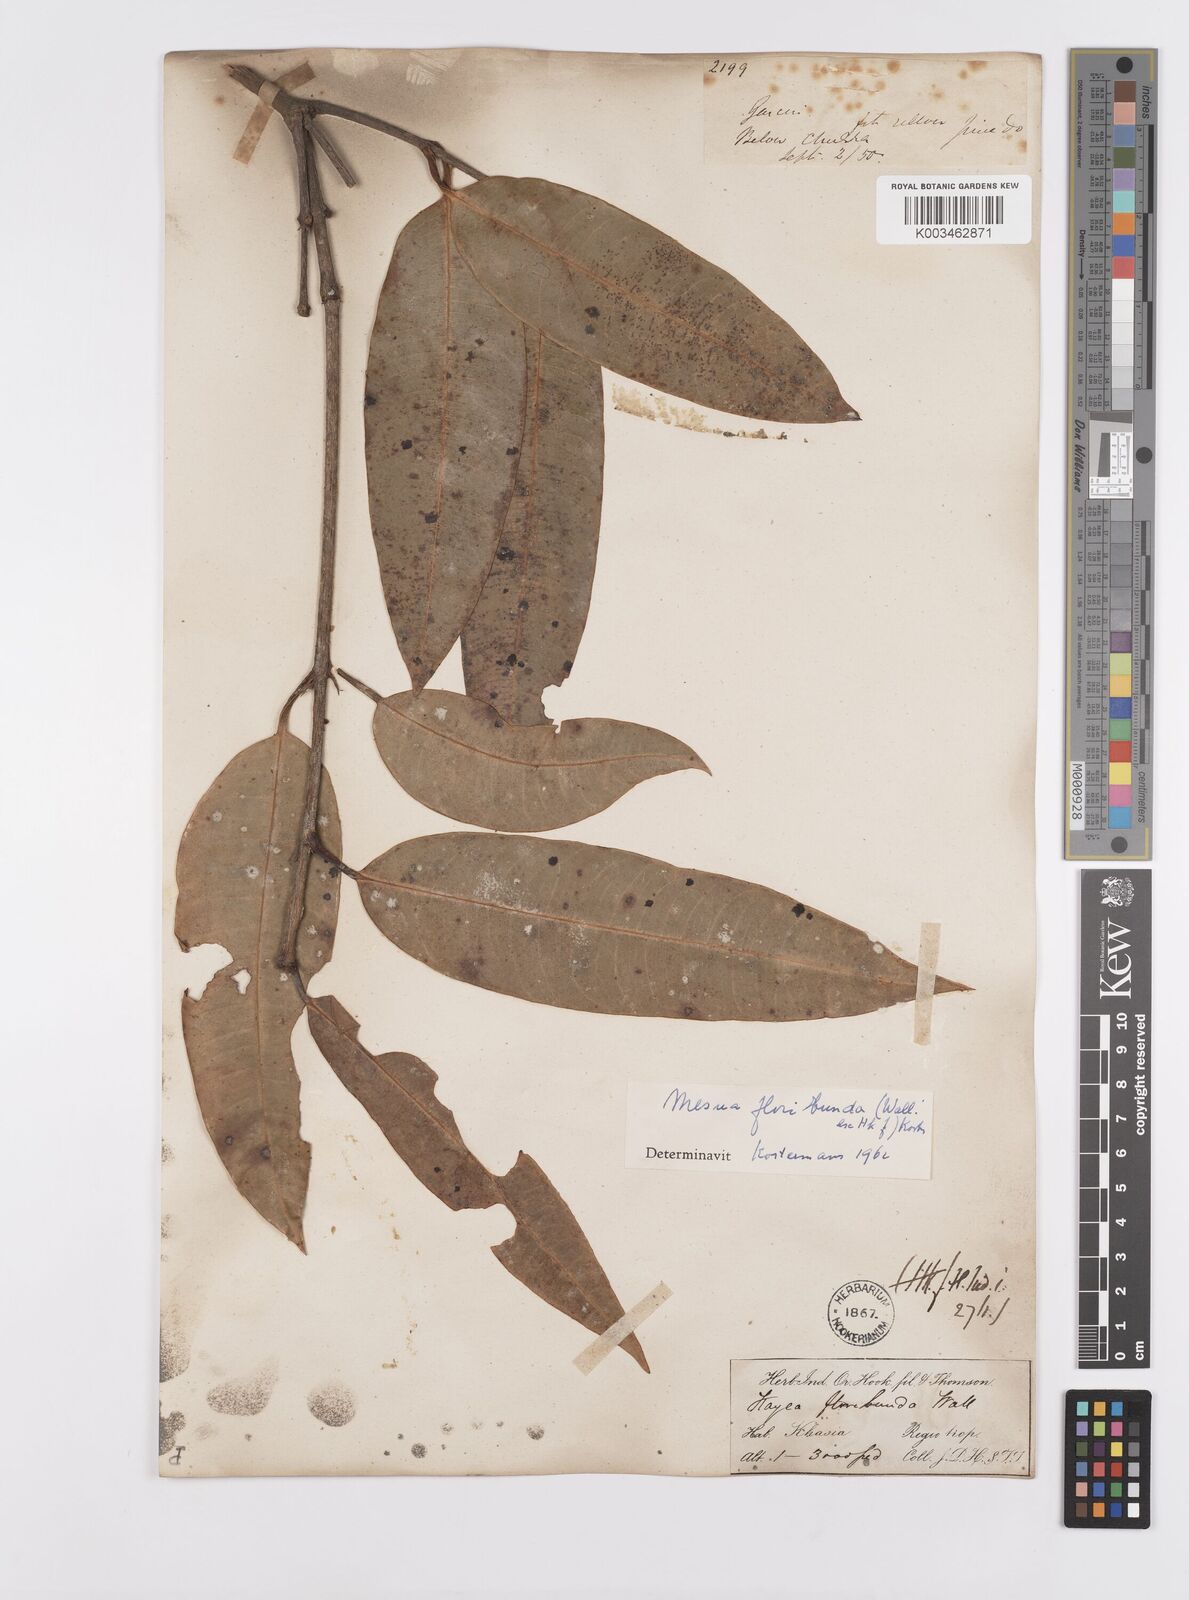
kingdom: Plantae
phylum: Tracheophyta
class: Magnoliopsida
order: Malpighiales
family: Calophyllaceae
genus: Kayea
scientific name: Kayea floribunda
